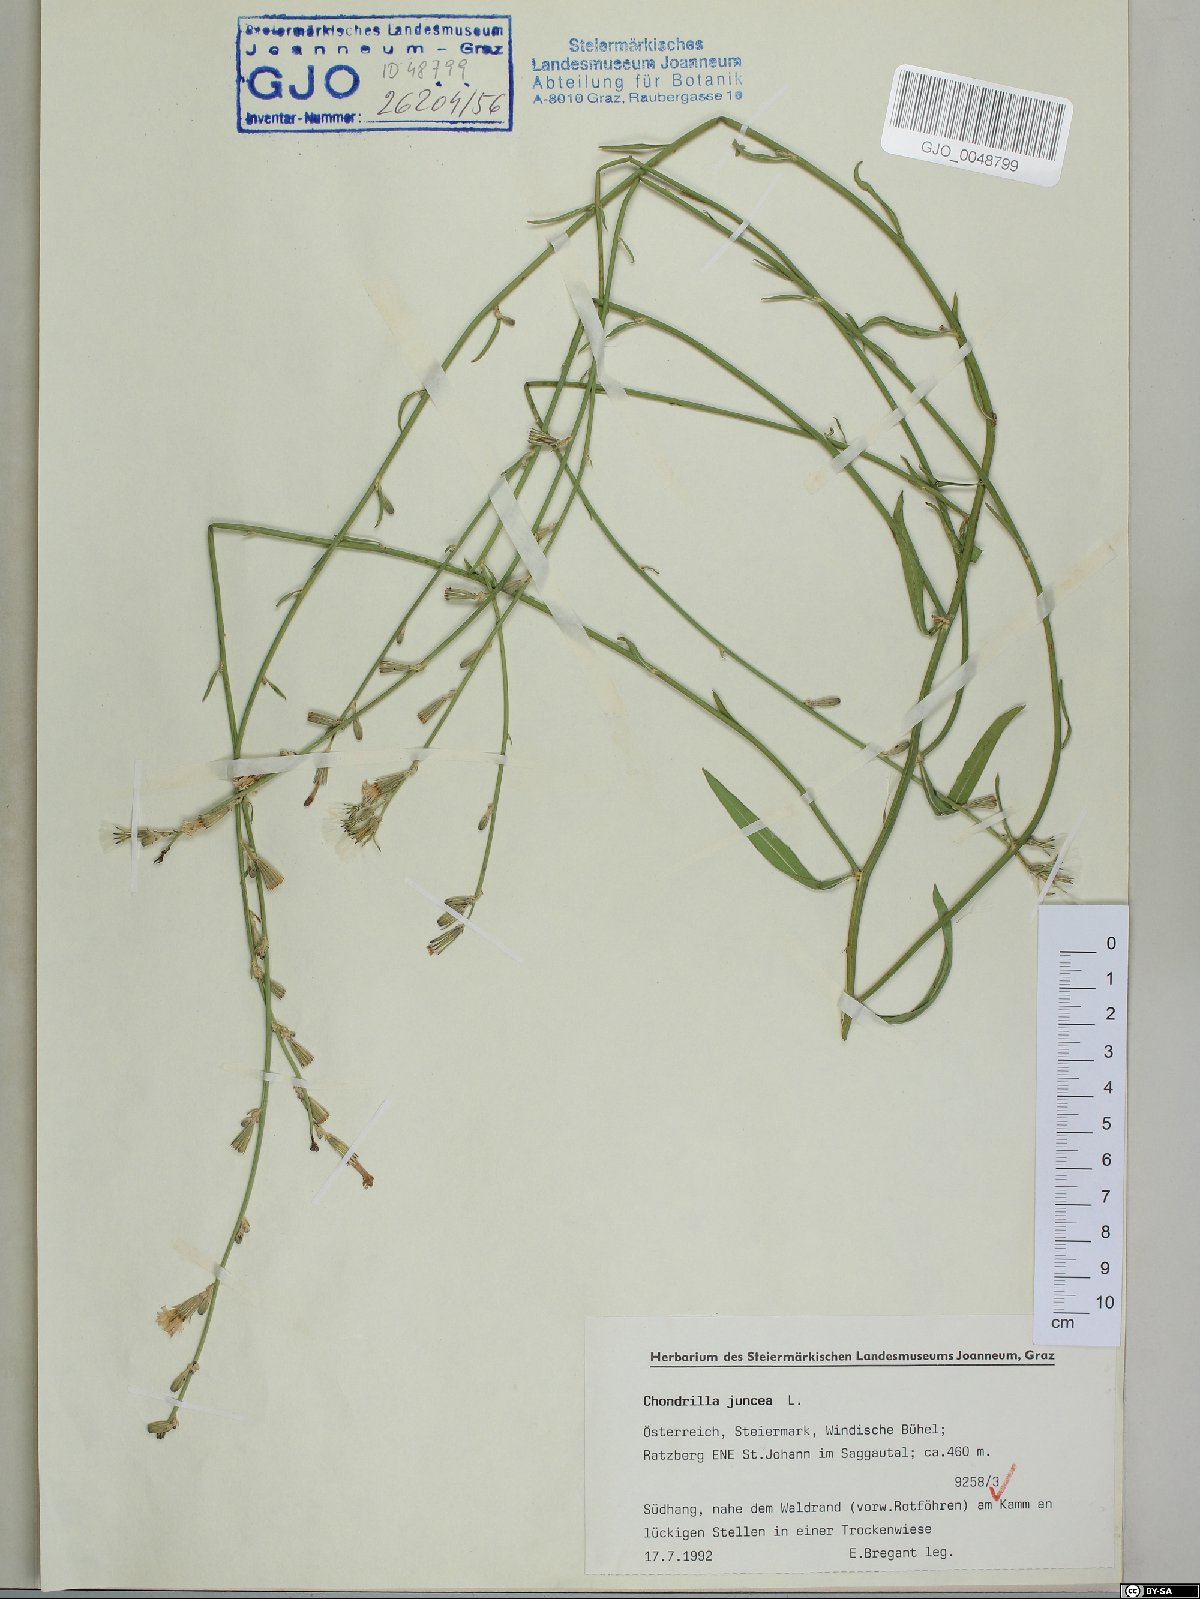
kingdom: Plantae
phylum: Tracheophyta
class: Magnoliopsida
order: Asterales
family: Asteraceae
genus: Chondrilla
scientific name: Chondrilla juncea
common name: Skeleton weed
